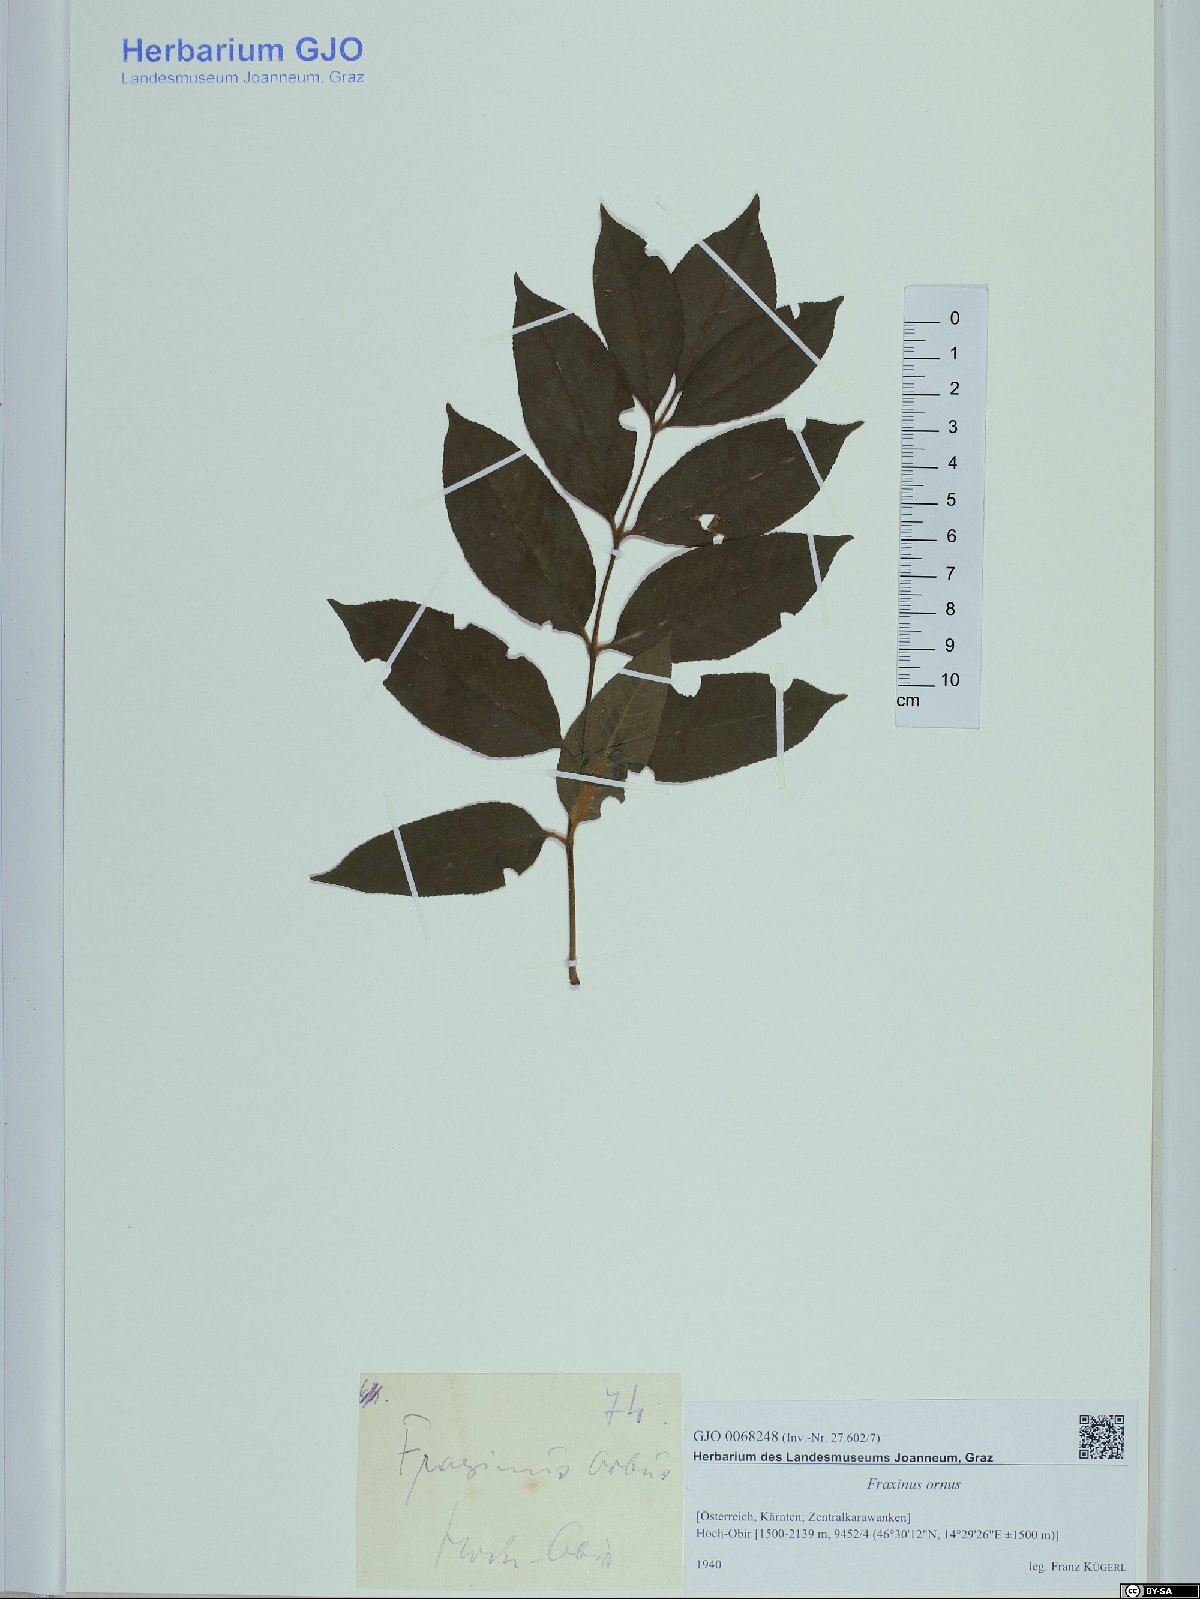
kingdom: Plantae
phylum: Tracheophyta
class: Magnoliopsida
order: Lamiales
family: Oleaceae
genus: Fraxinus
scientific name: Fraxinus ornus
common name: Manna ash
